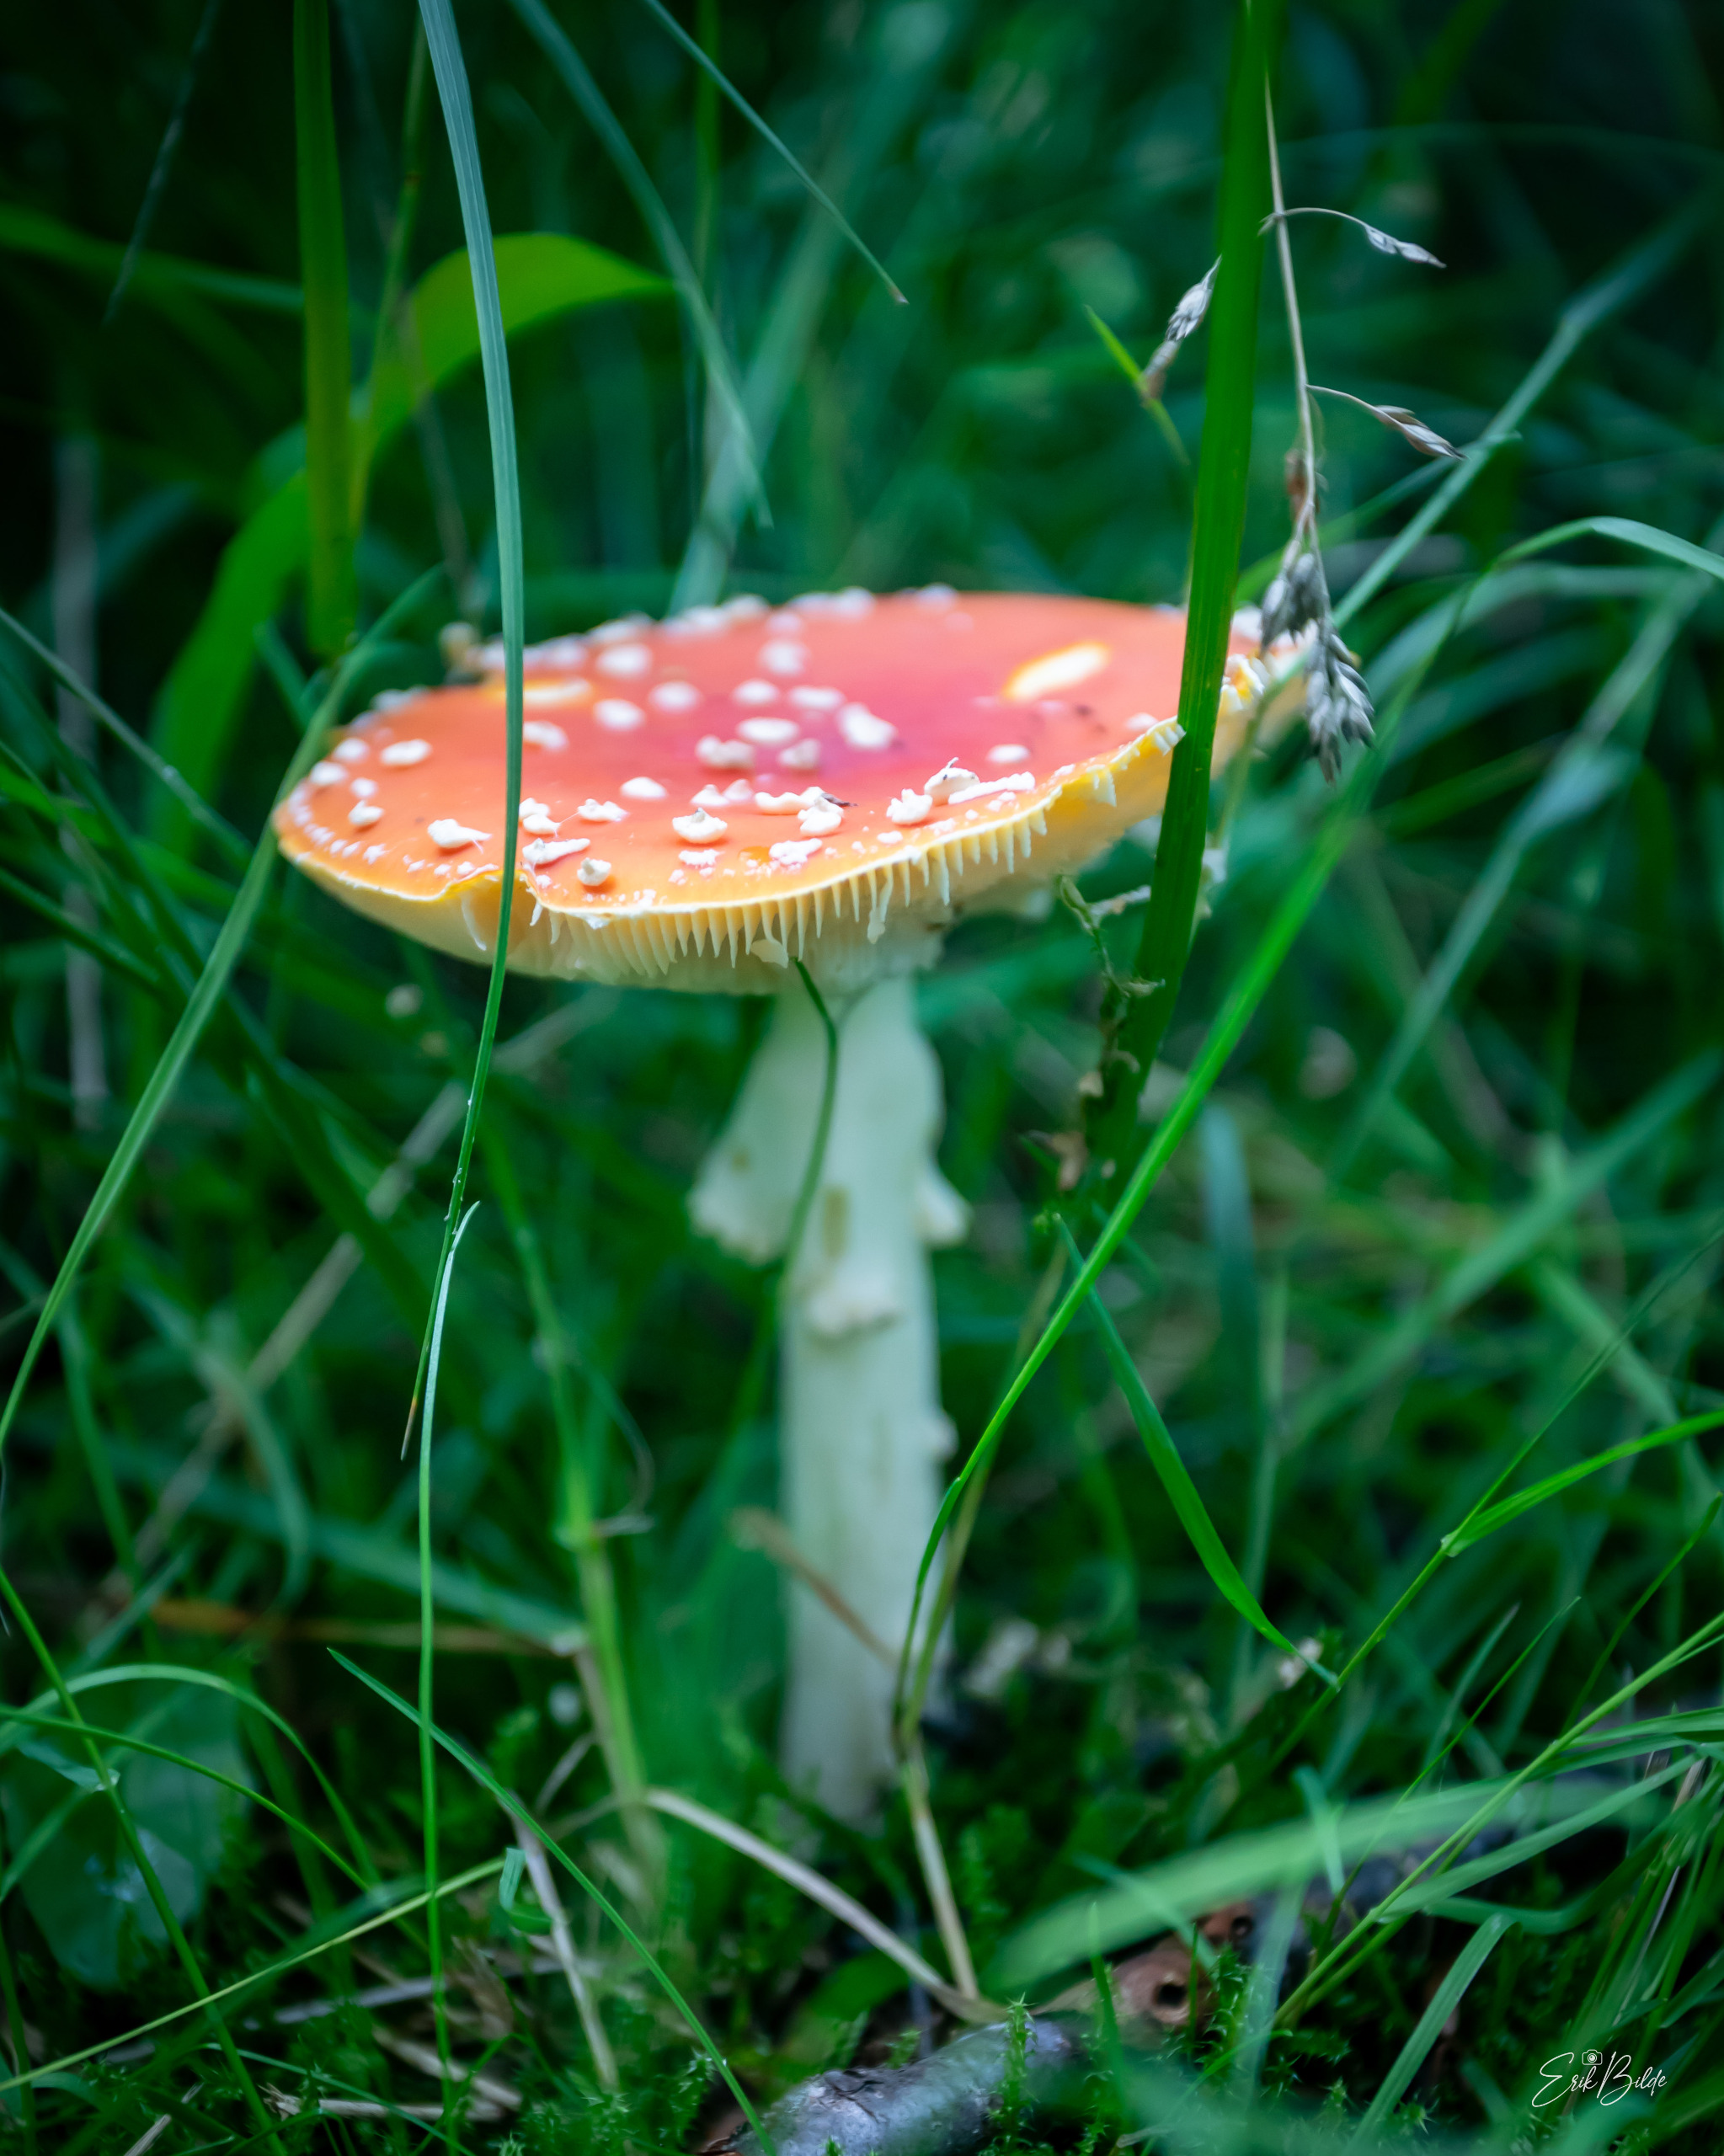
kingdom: Fungi
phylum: Basidiomycota
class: Agaricomycetes
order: Agaricales
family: Amanitaceae
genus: Amanita
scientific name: Amanita muscaria
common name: Rød fluesvamp
